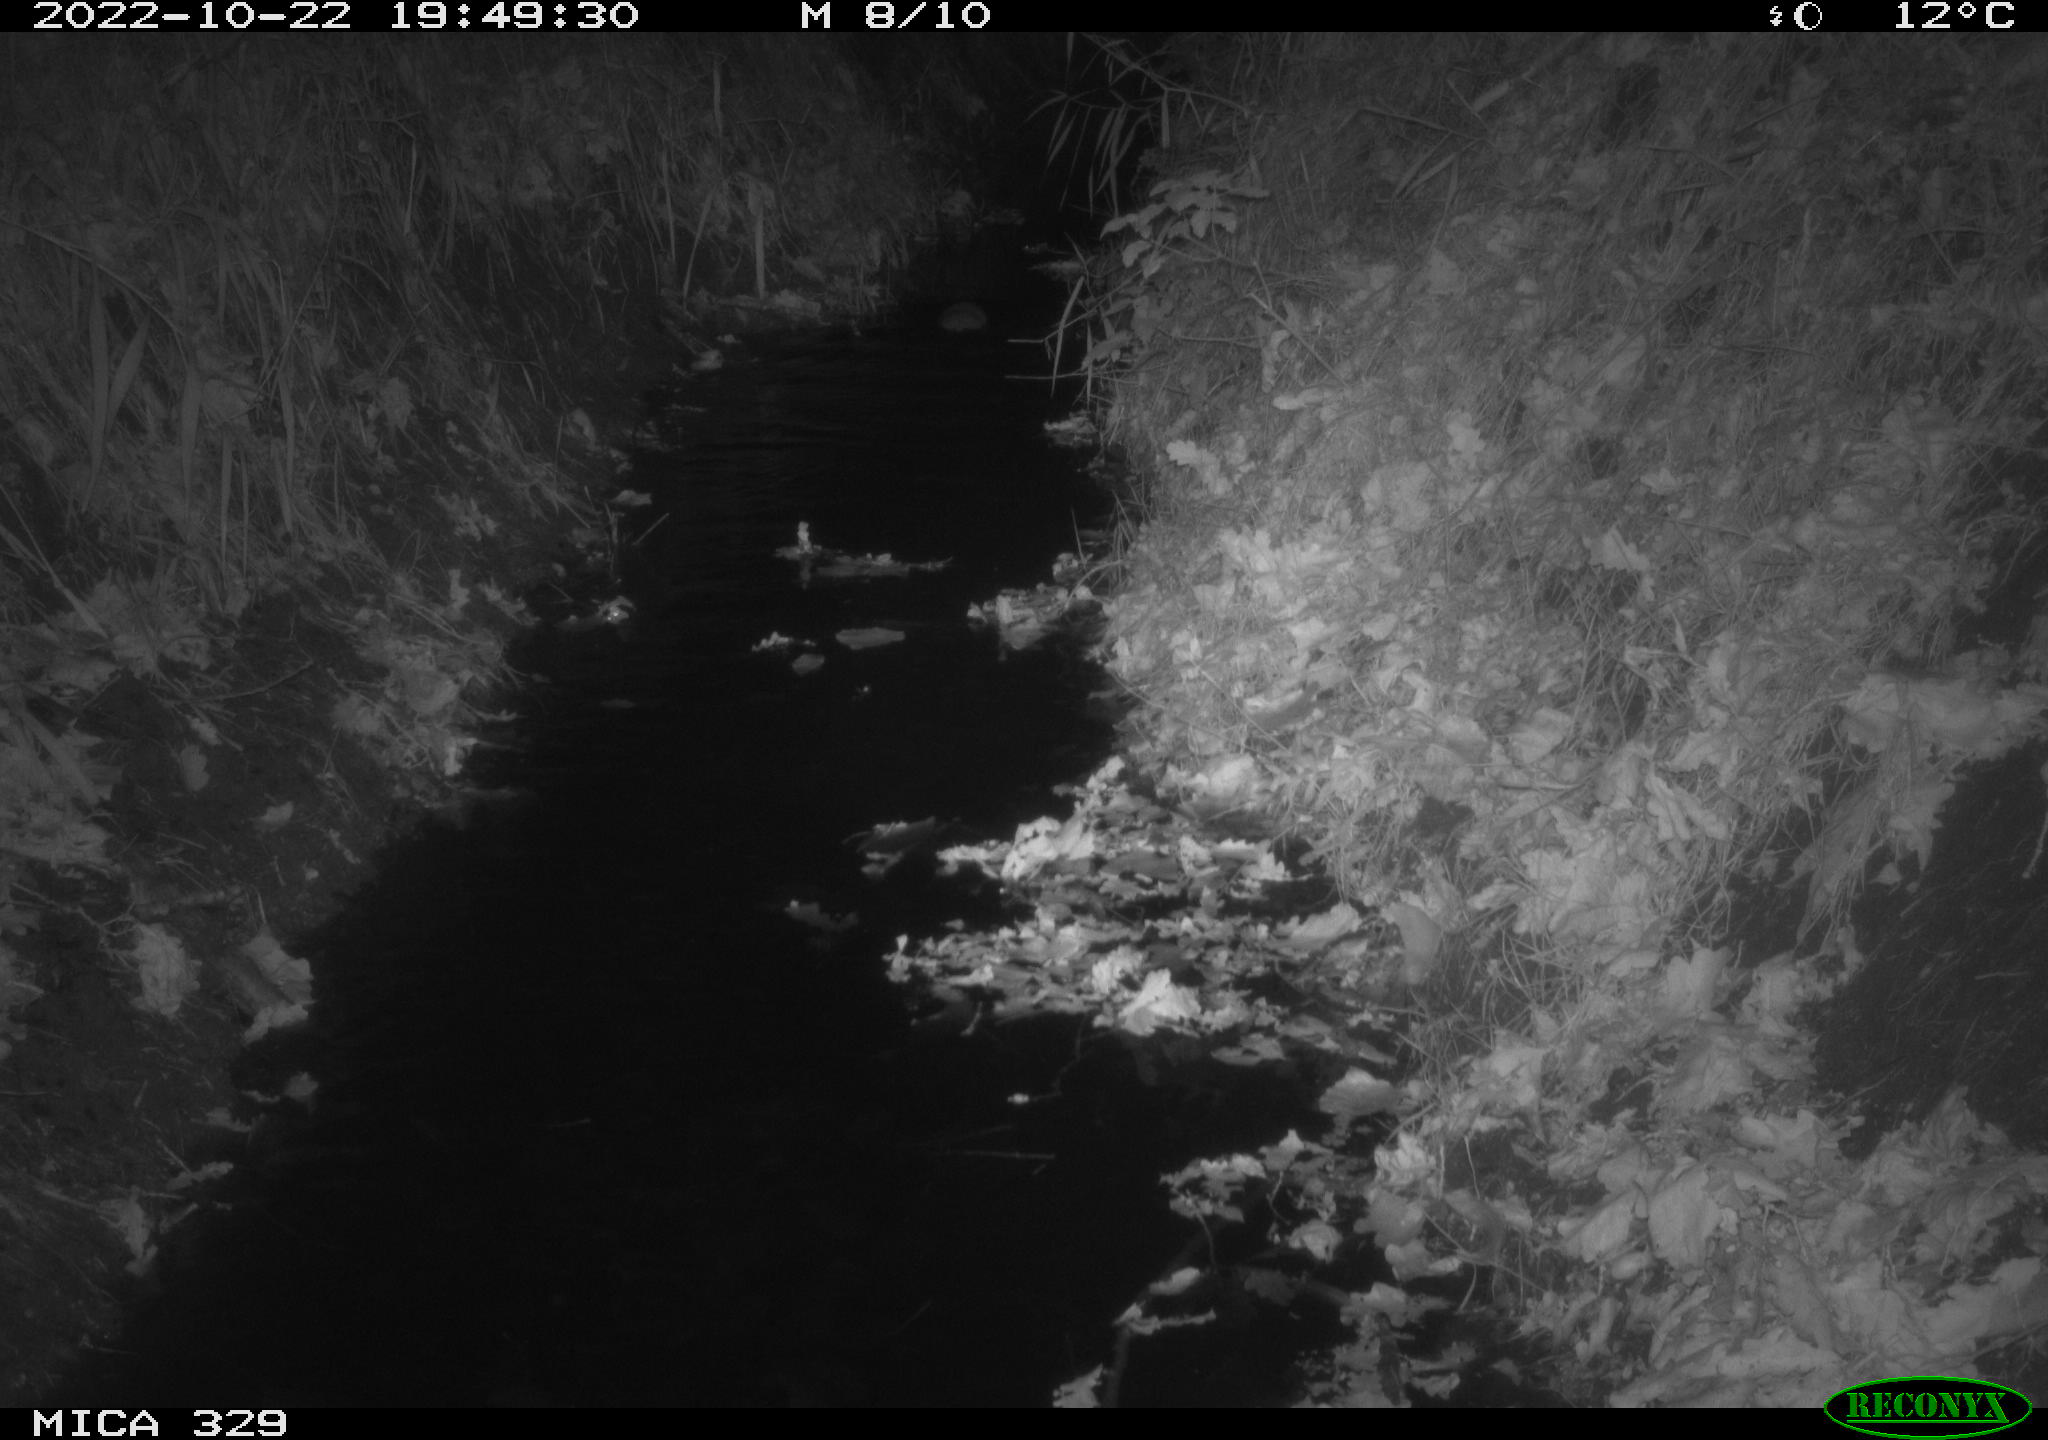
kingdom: Animalia
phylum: Chordata
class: Mammalia
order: Rodentia
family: Cricetidae
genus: Ondatra
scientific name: Ondatra zibethicus
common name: Muskrat
